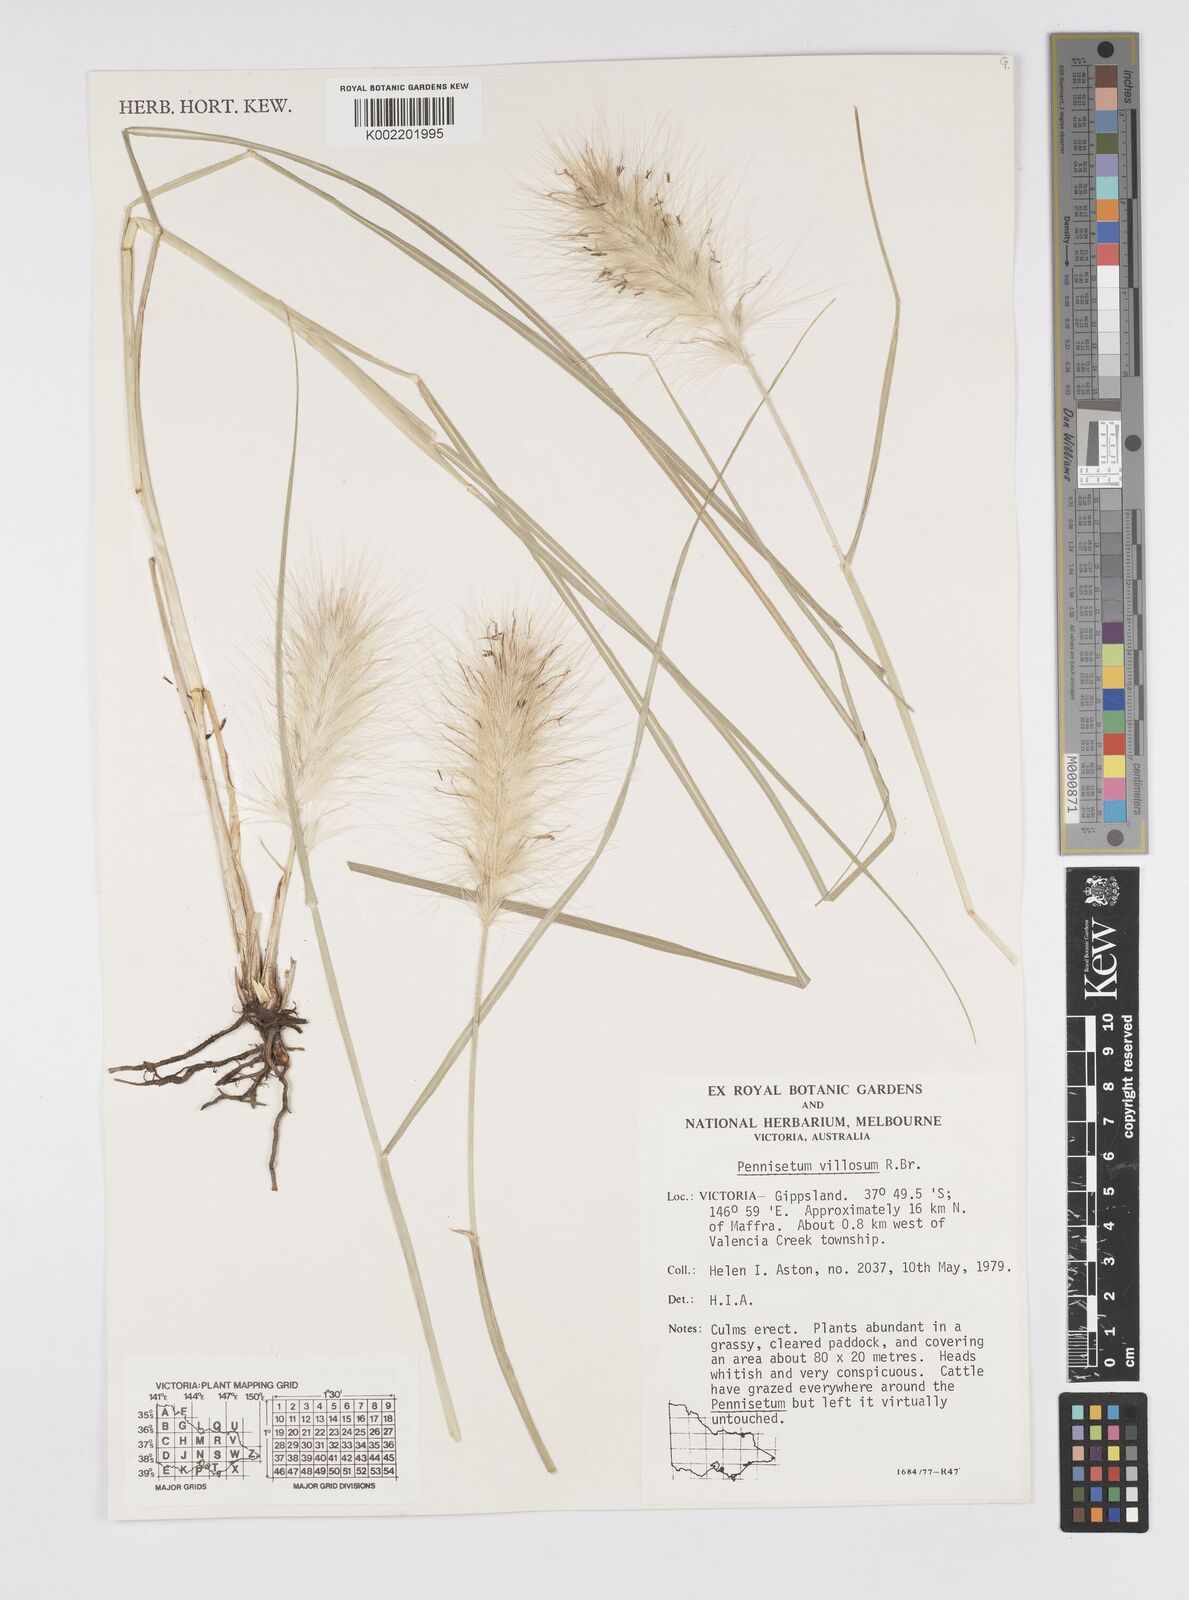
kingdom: Plantae
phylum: Tracheophyta
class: Liliopsida
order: Poales
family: Poaceae
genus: Cenchrus
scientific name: Cenchrus longisetus
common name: Feathertop
